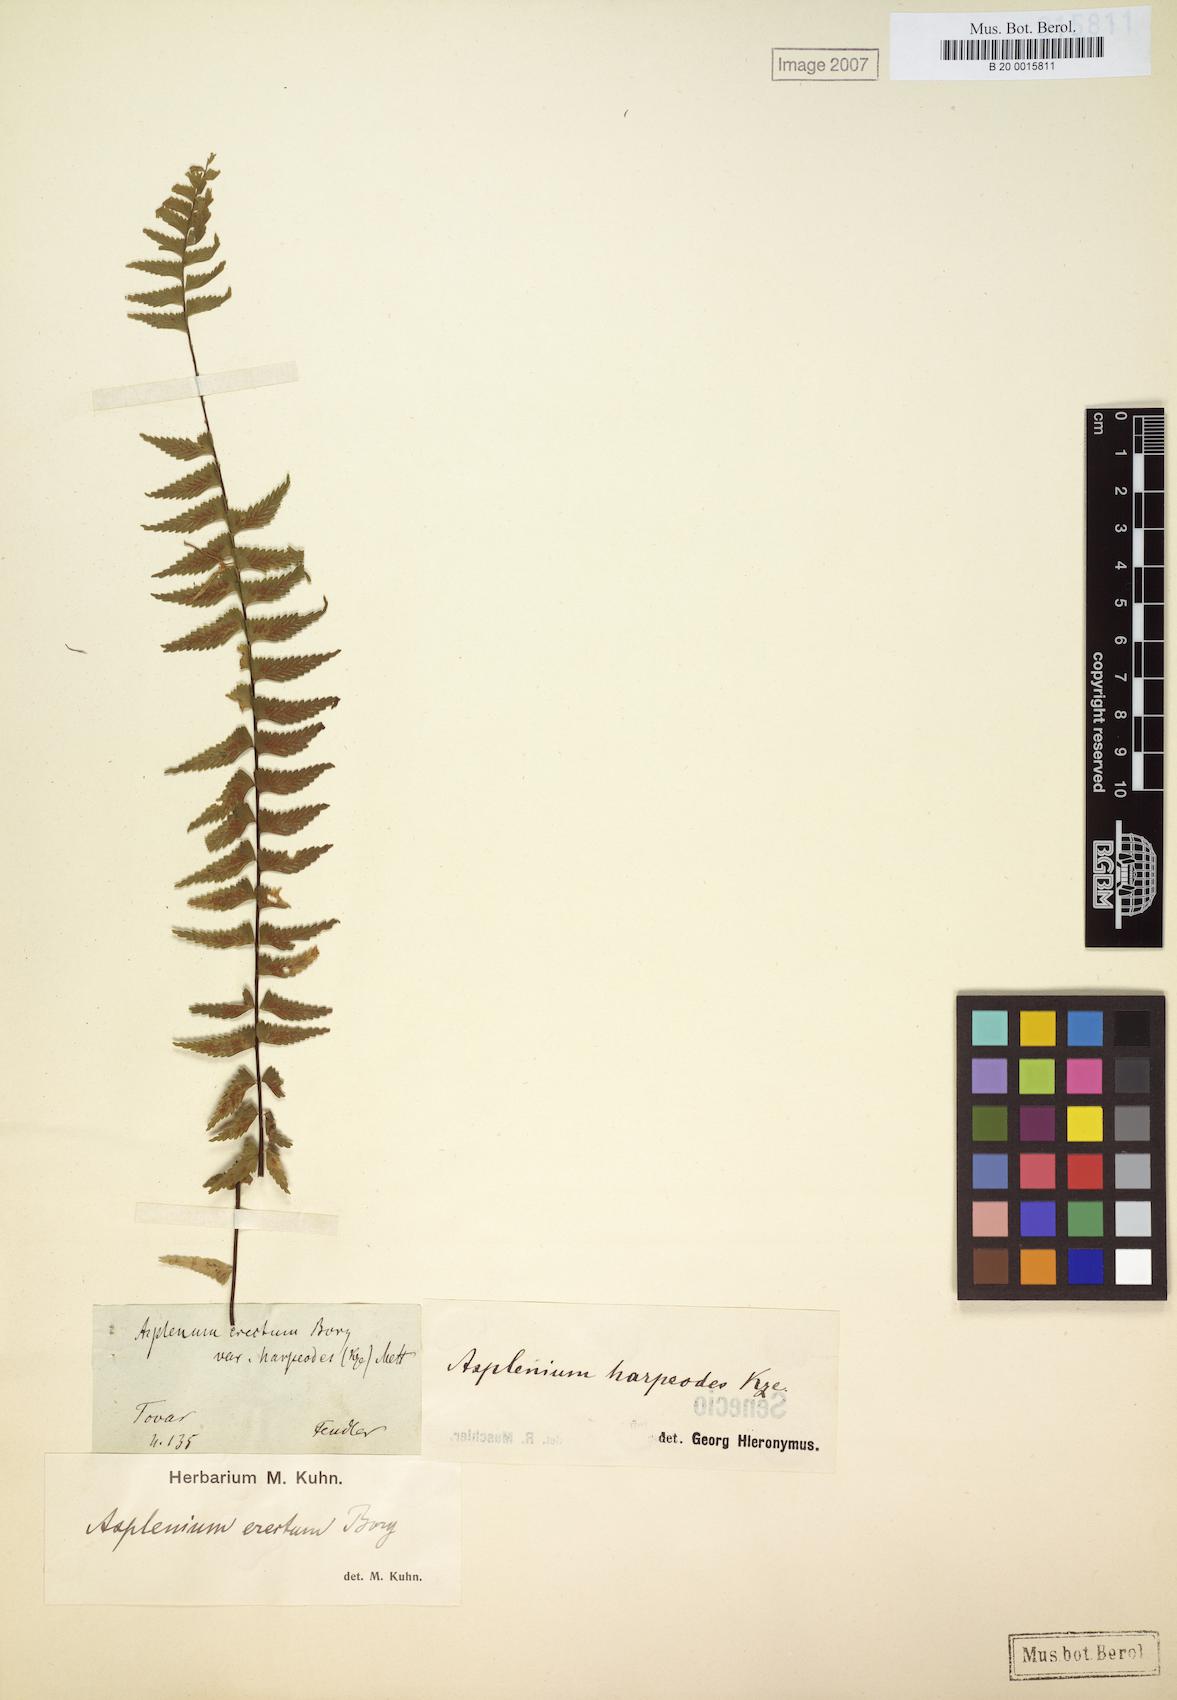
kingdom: Plantae
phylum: Tracheophyta
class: Polypodiopsida
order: Polypodiales
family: Aspleniaceae
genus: Asplenium
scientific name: Asplenium harpeodes
